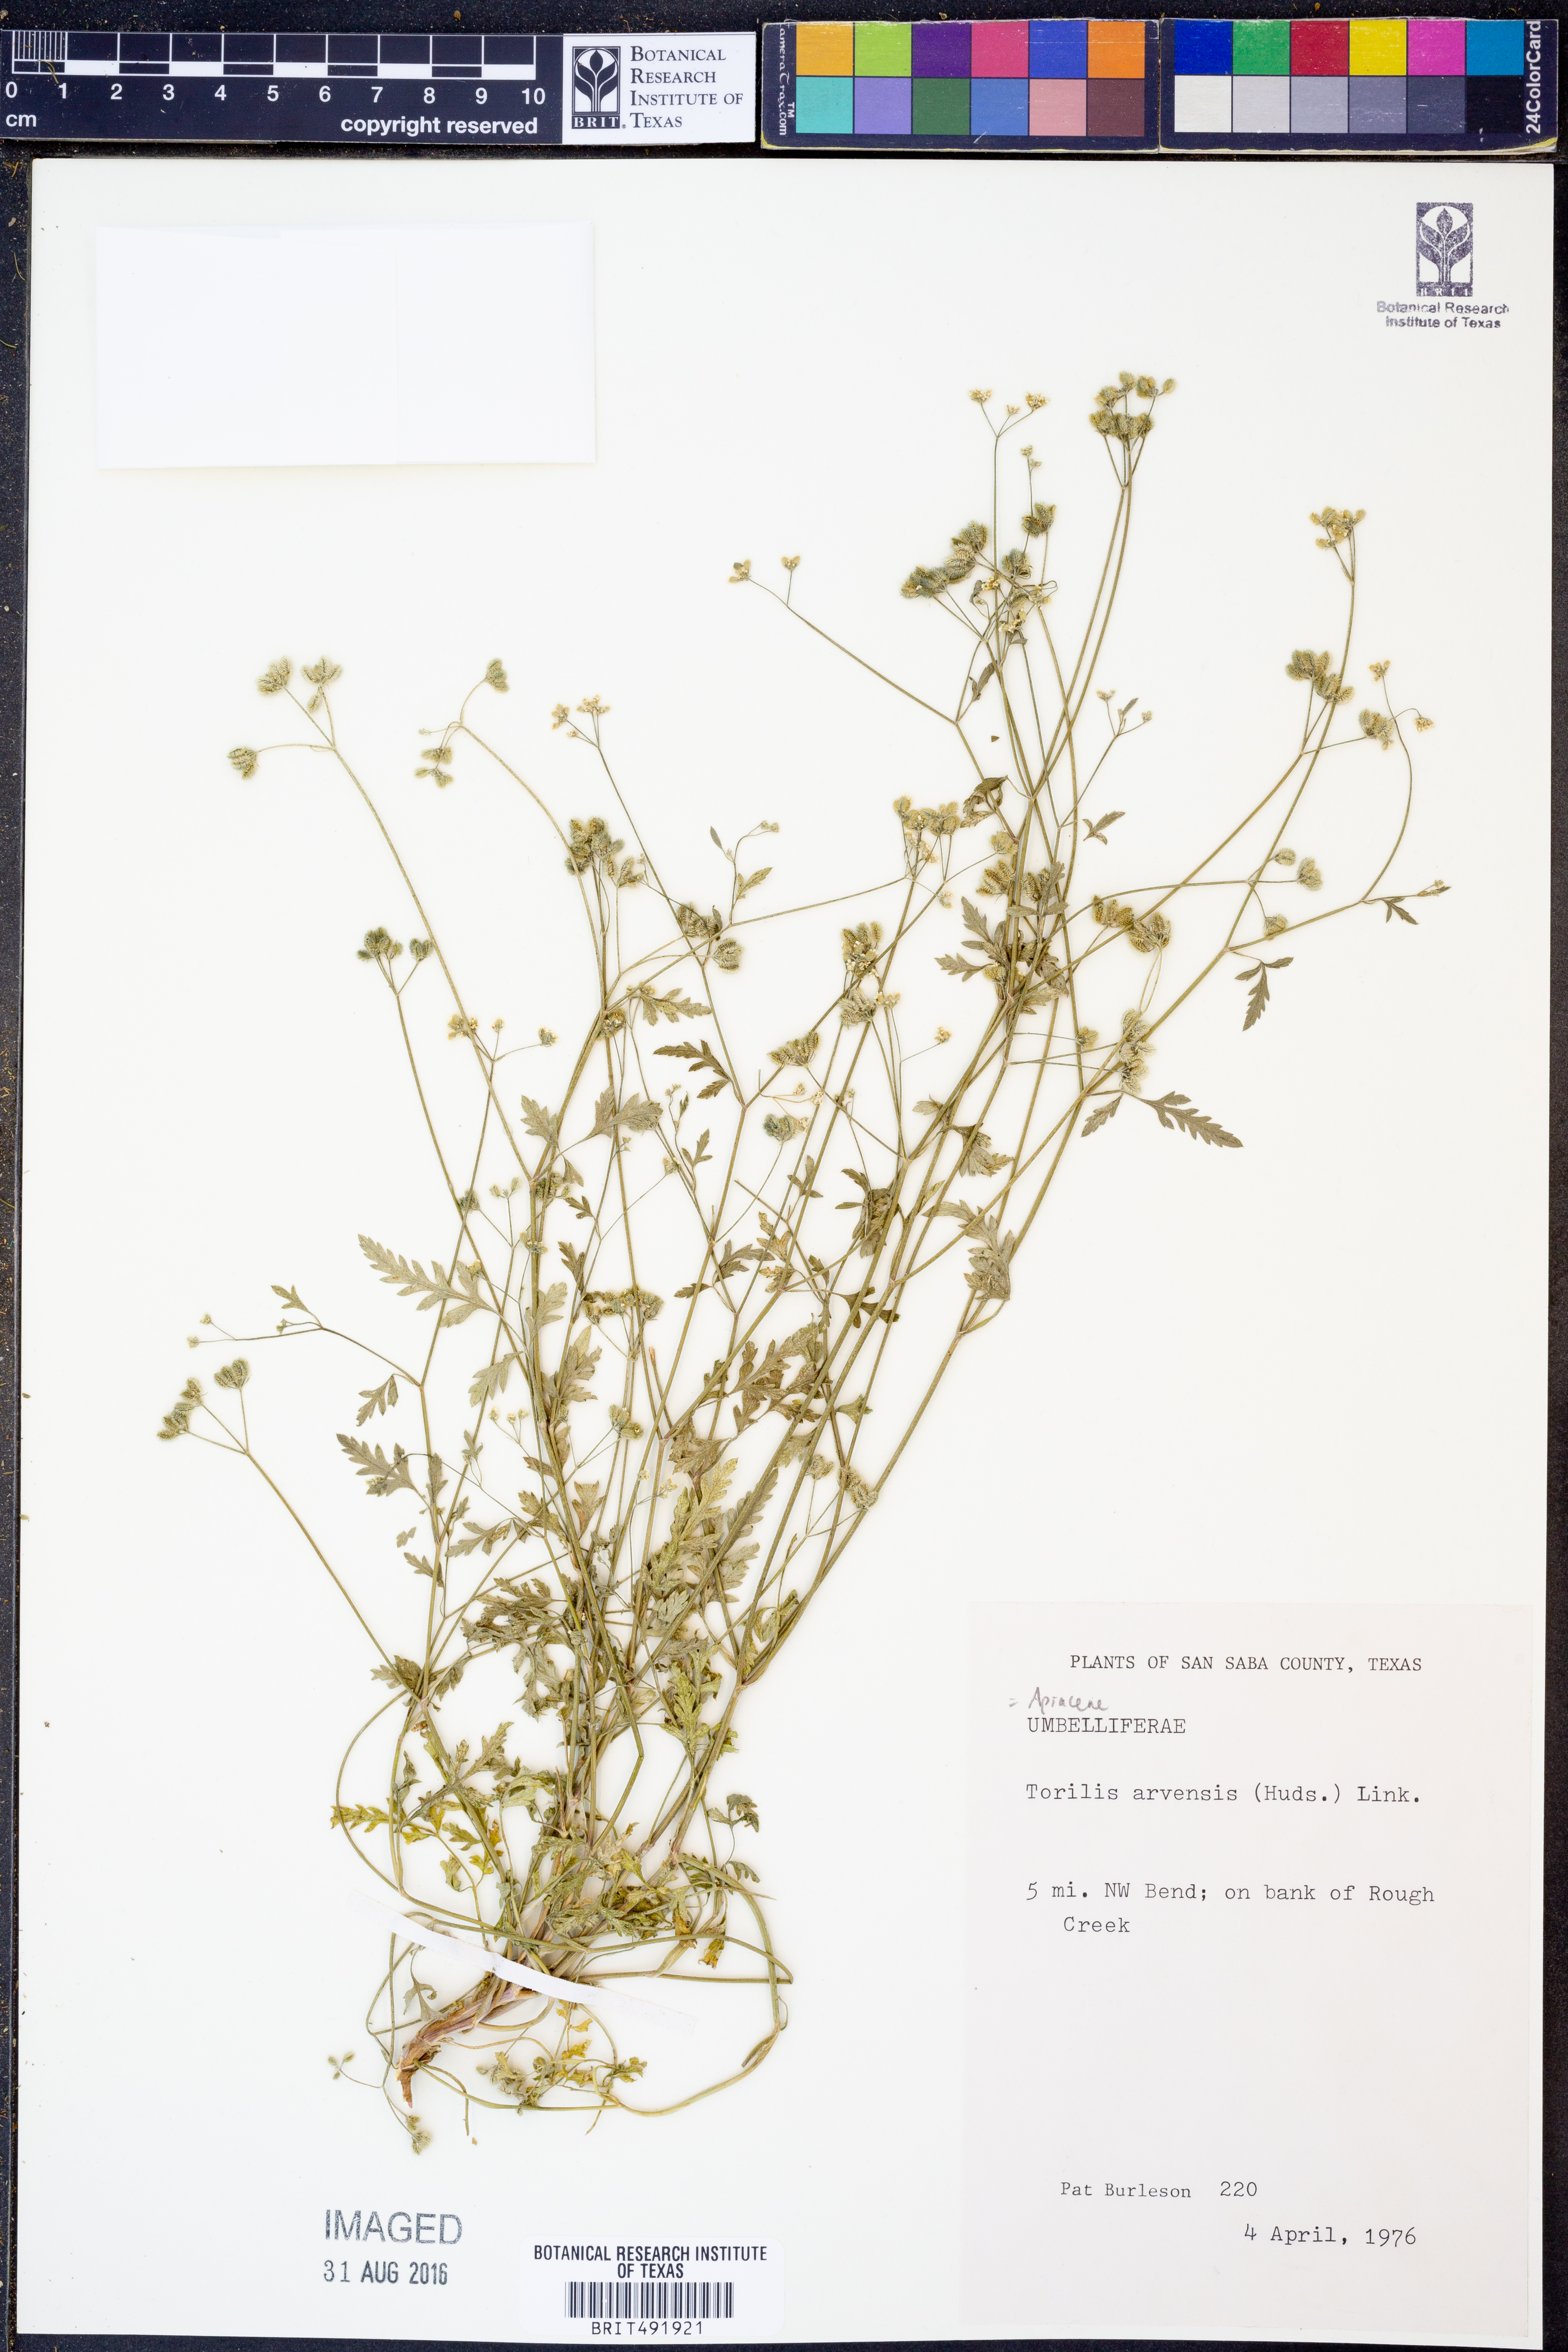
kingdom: Plantae
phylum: Tracheophyta
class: Magnoliopsida
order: Apiales
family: Apiaceae
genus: Torilis
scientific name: Torilis arvensis
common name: Spreading hedge-parsley
